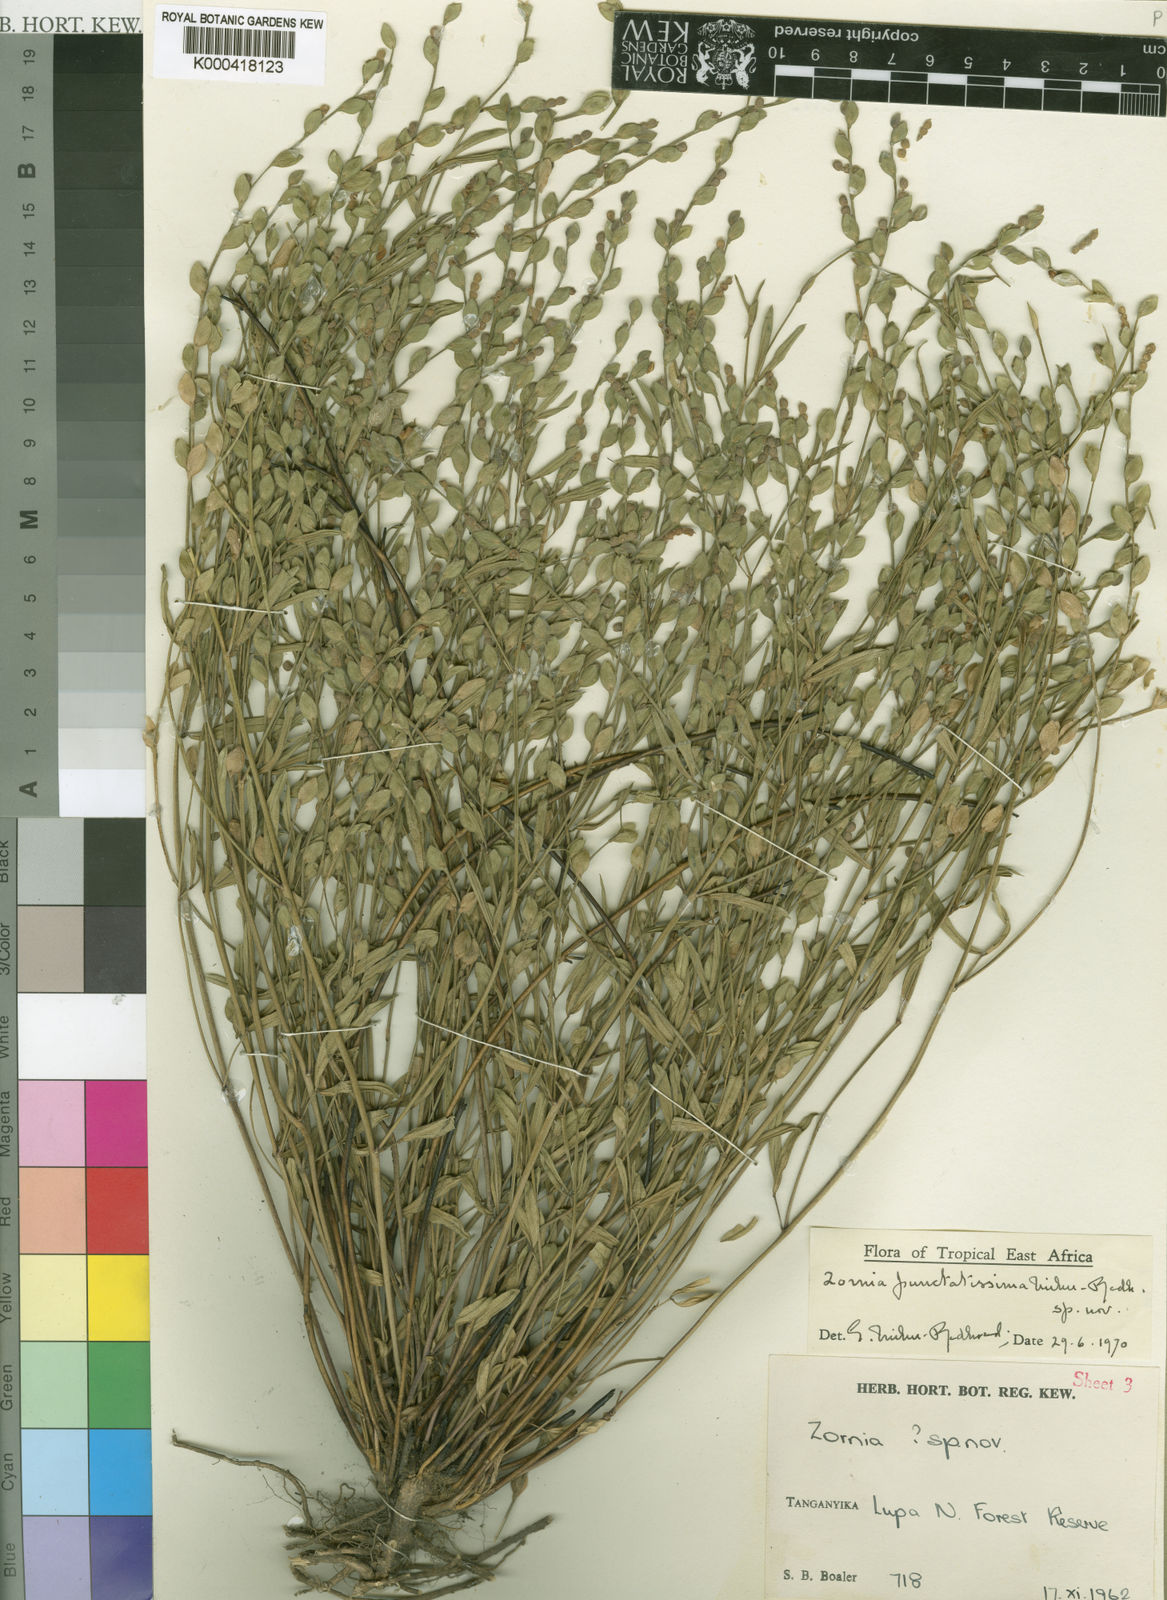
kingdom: Plantae
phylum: Tracheophyta
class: Magnoliopsida
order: Fabales
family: Fabaceae
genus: Zornia
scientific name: Zornia punctatissima
